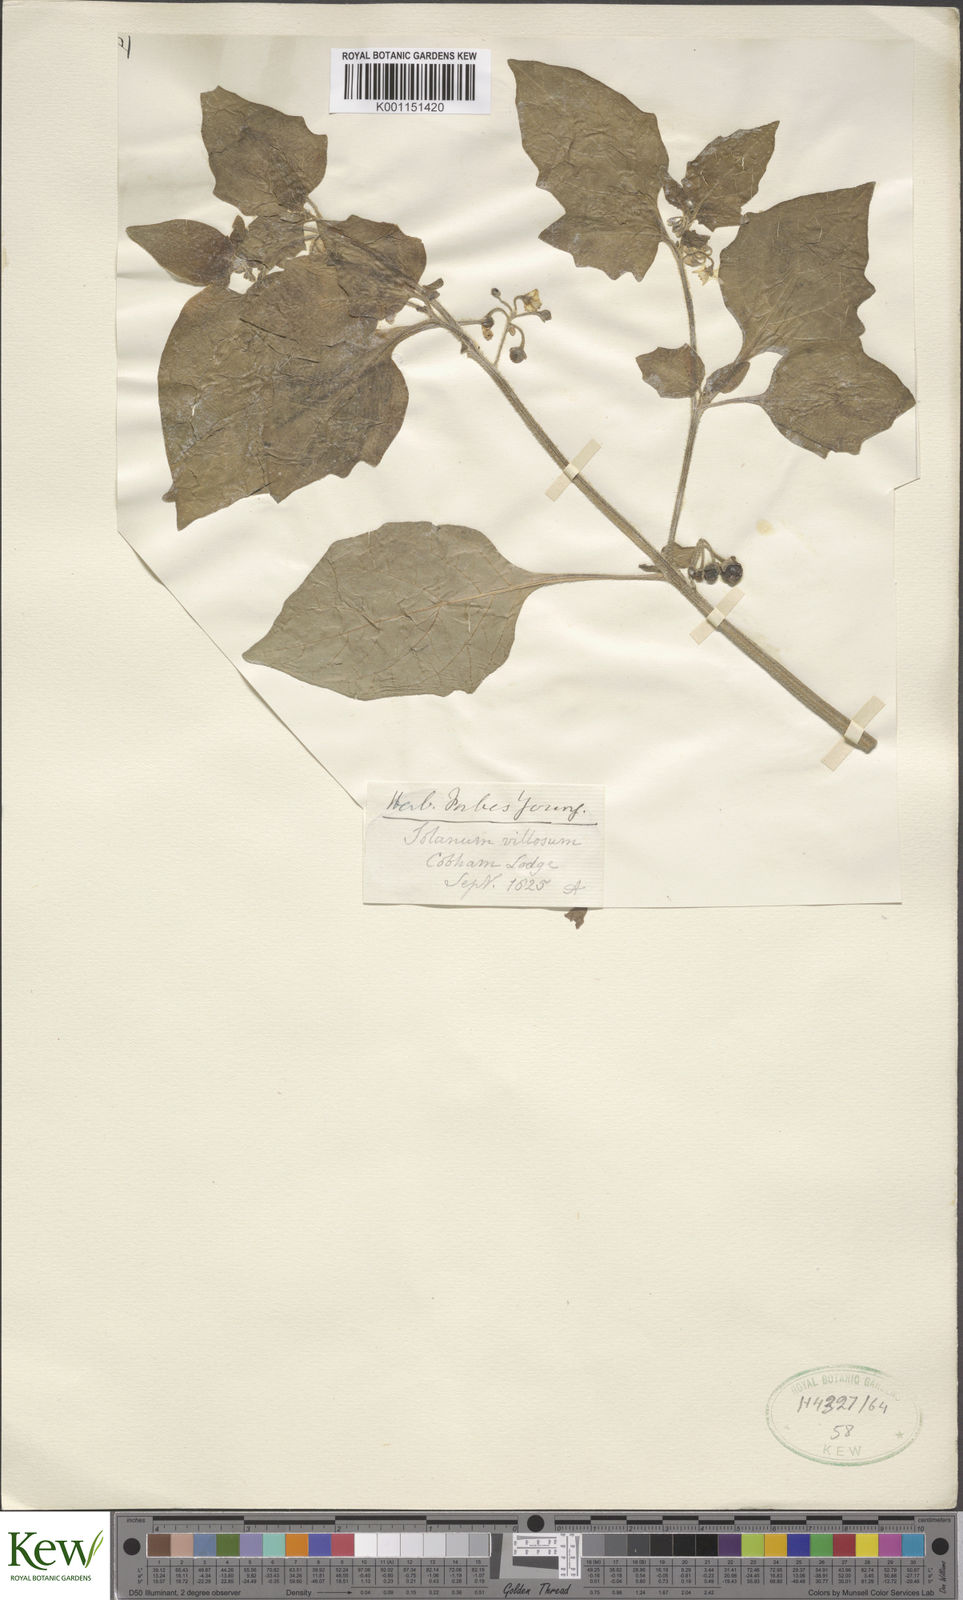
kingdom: Plantae
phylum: Tracheophyta
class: Magnoliopsida
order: Solanales
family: Solanaceae
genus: Solanum
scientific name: Solanum villosum
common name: Red nightshade
